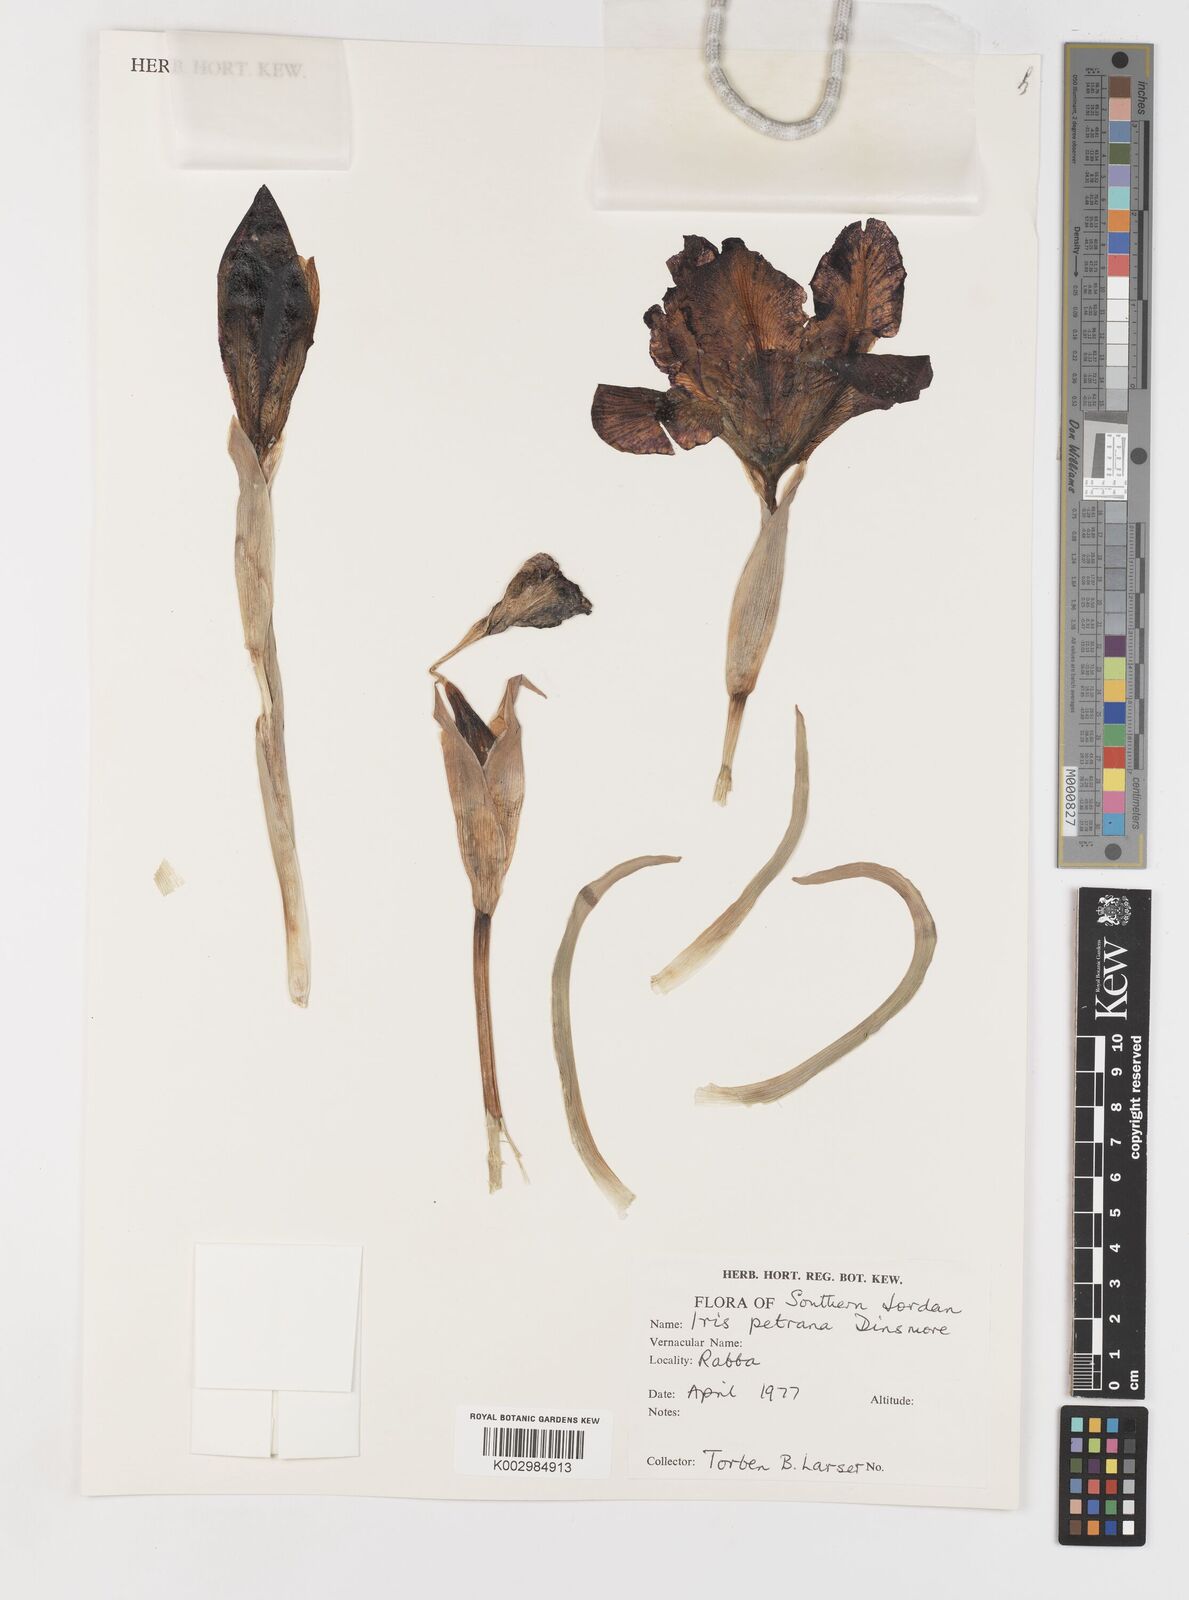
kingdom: Plantae
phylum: Tracheophyta
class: Liliopsida
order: Asparagales
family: Iridaceae
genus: Iris
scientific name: Iris petrana
